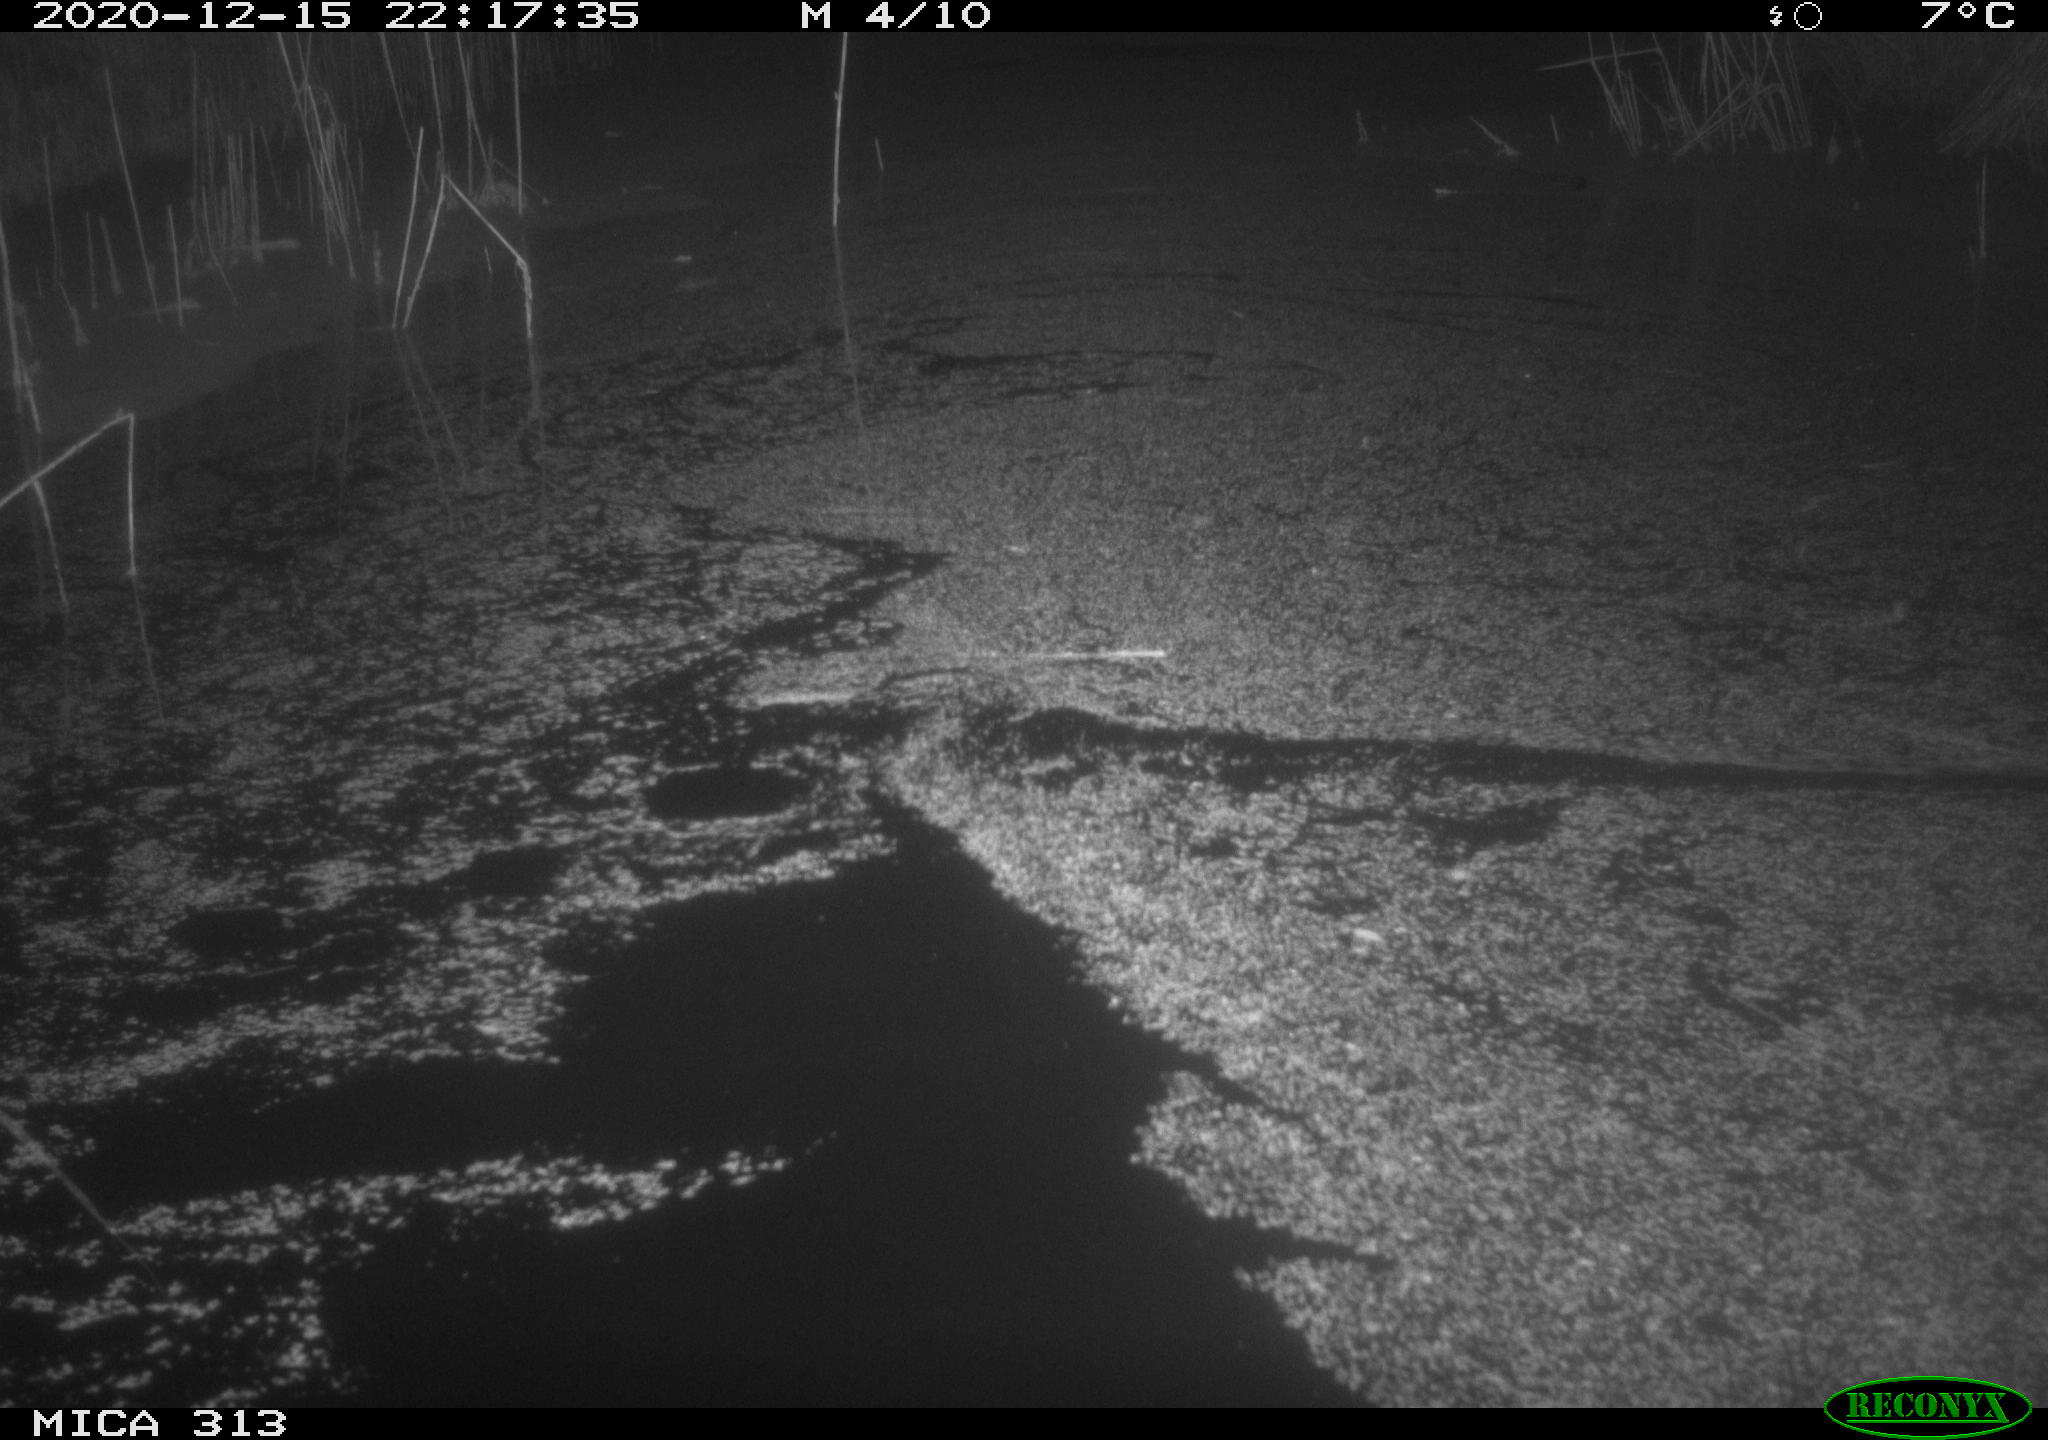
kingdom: Animalia
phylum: Chordata
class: Mammalia
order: Rodentia
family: Muridae
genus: Rattus
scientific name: Rattus norvegicus
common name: Brown rat
